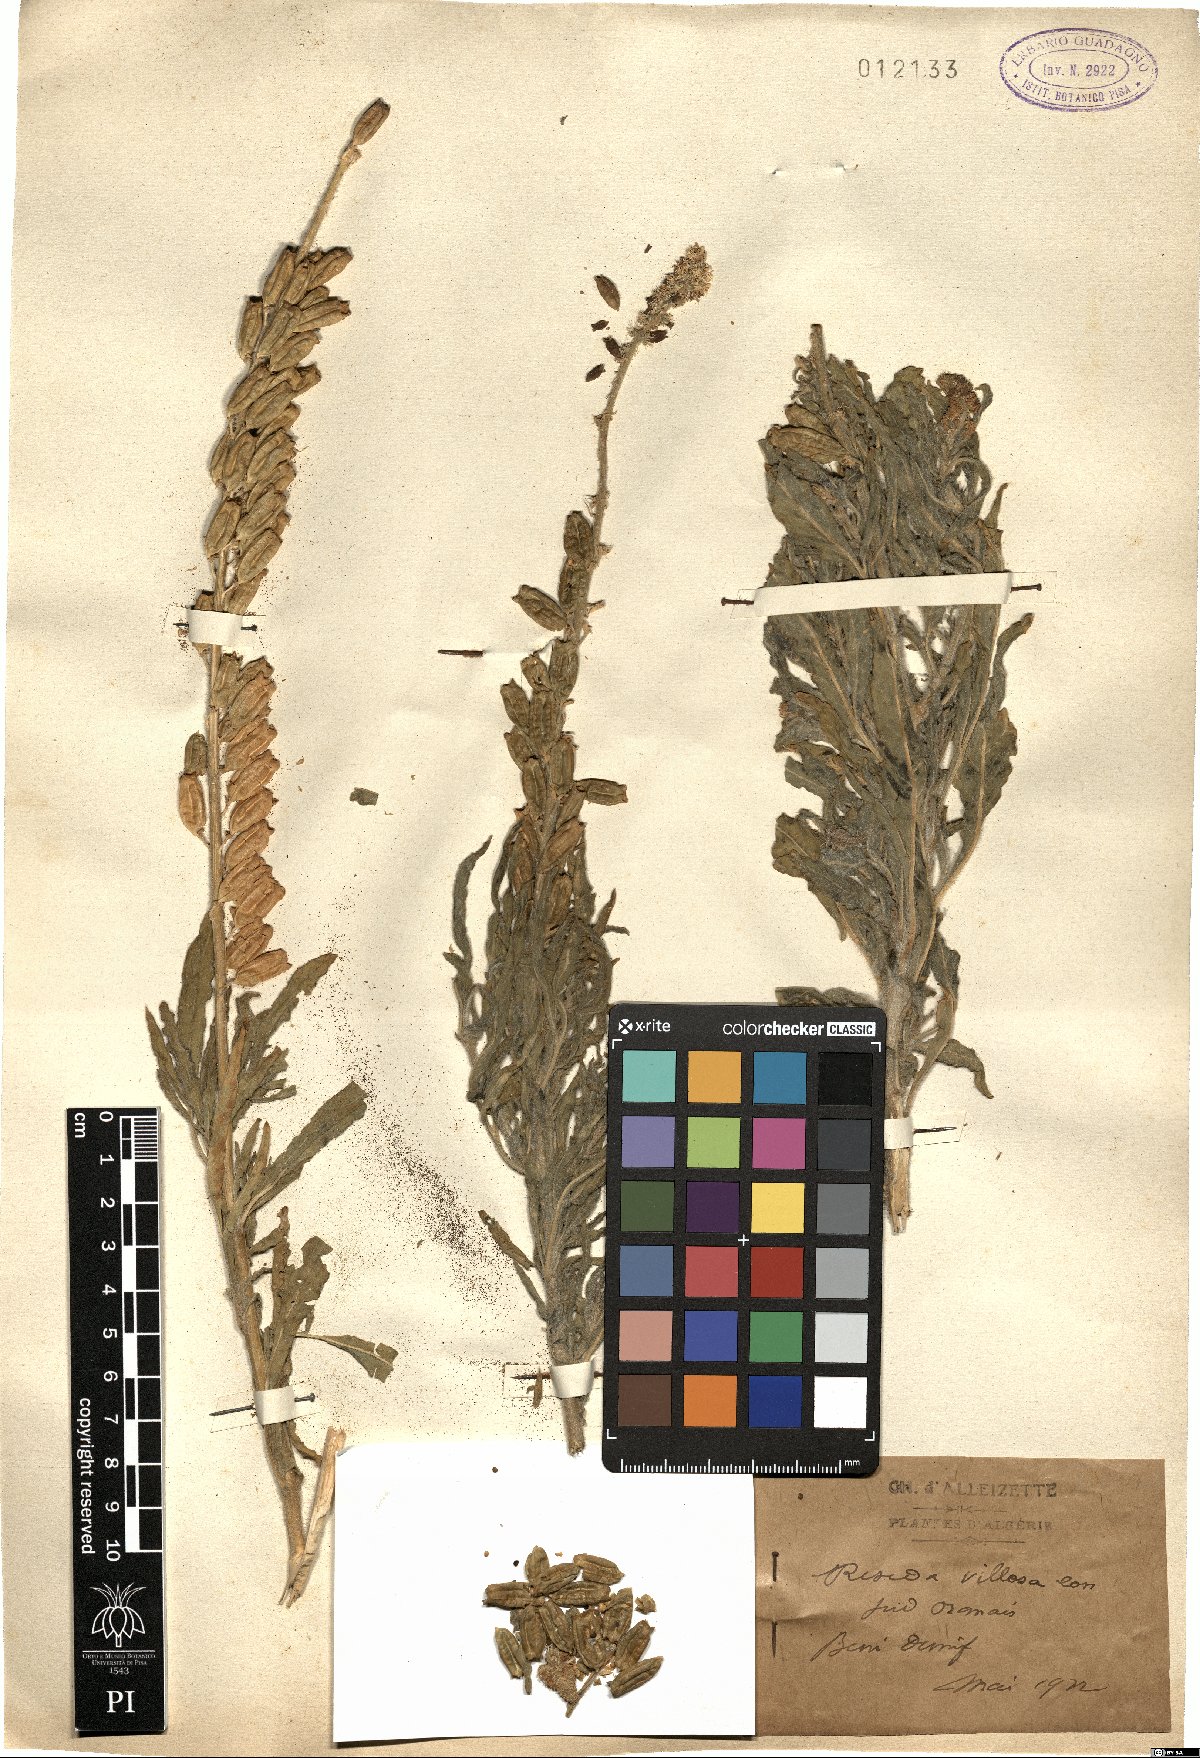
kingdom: Plantae
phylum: Tracheophyta
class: Magnoliopsida
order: Brassicales
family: Resedaceae
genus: Reseda
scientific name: Reseda villosa
